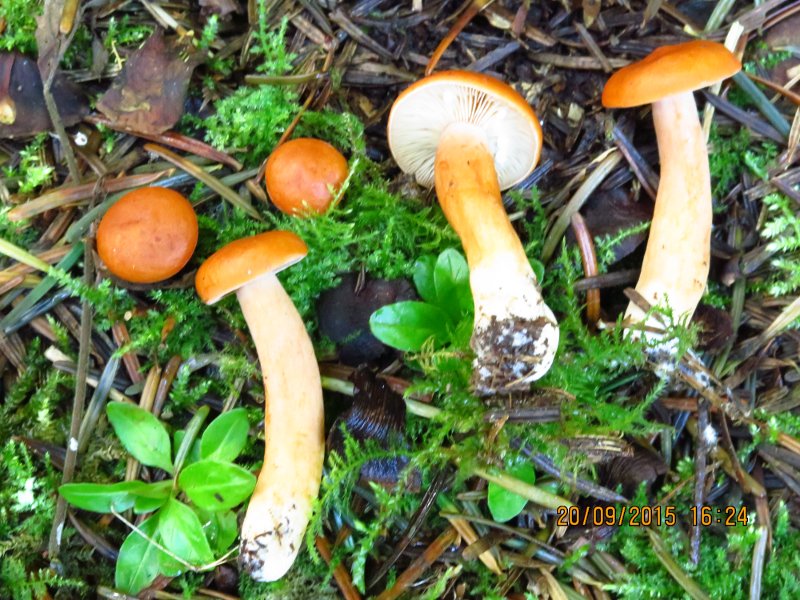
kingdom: Fungi
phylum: Basidiomycota
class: Agaricomycetes
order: Russulales
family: Russulaceae
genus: Lactarius
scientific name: Lactarius aurantiacus
